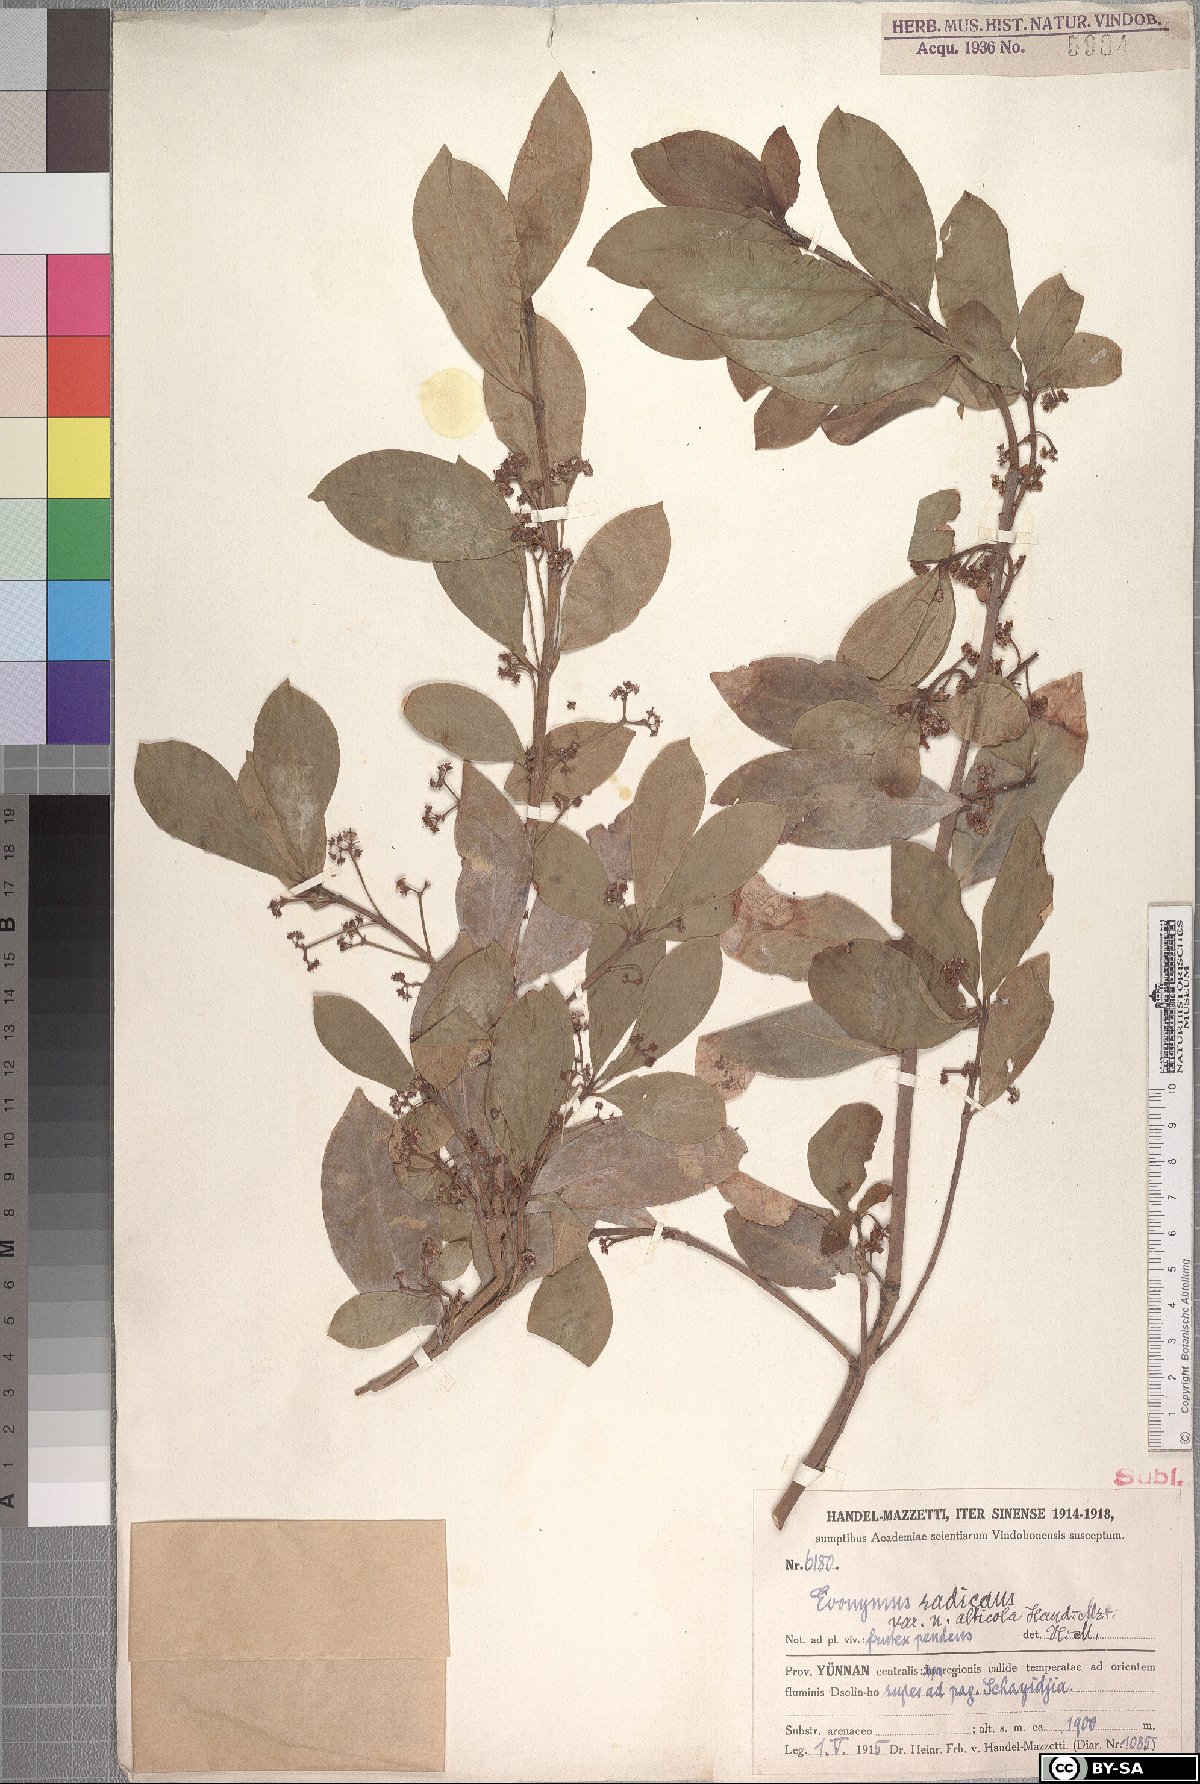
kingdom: Plantae
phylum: Tracheophyta
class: Magnoliopsida
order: Celastrales
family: Celastraceae
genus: Euonymus
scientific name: Euonymus fortunei
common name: Climbing euonymus
